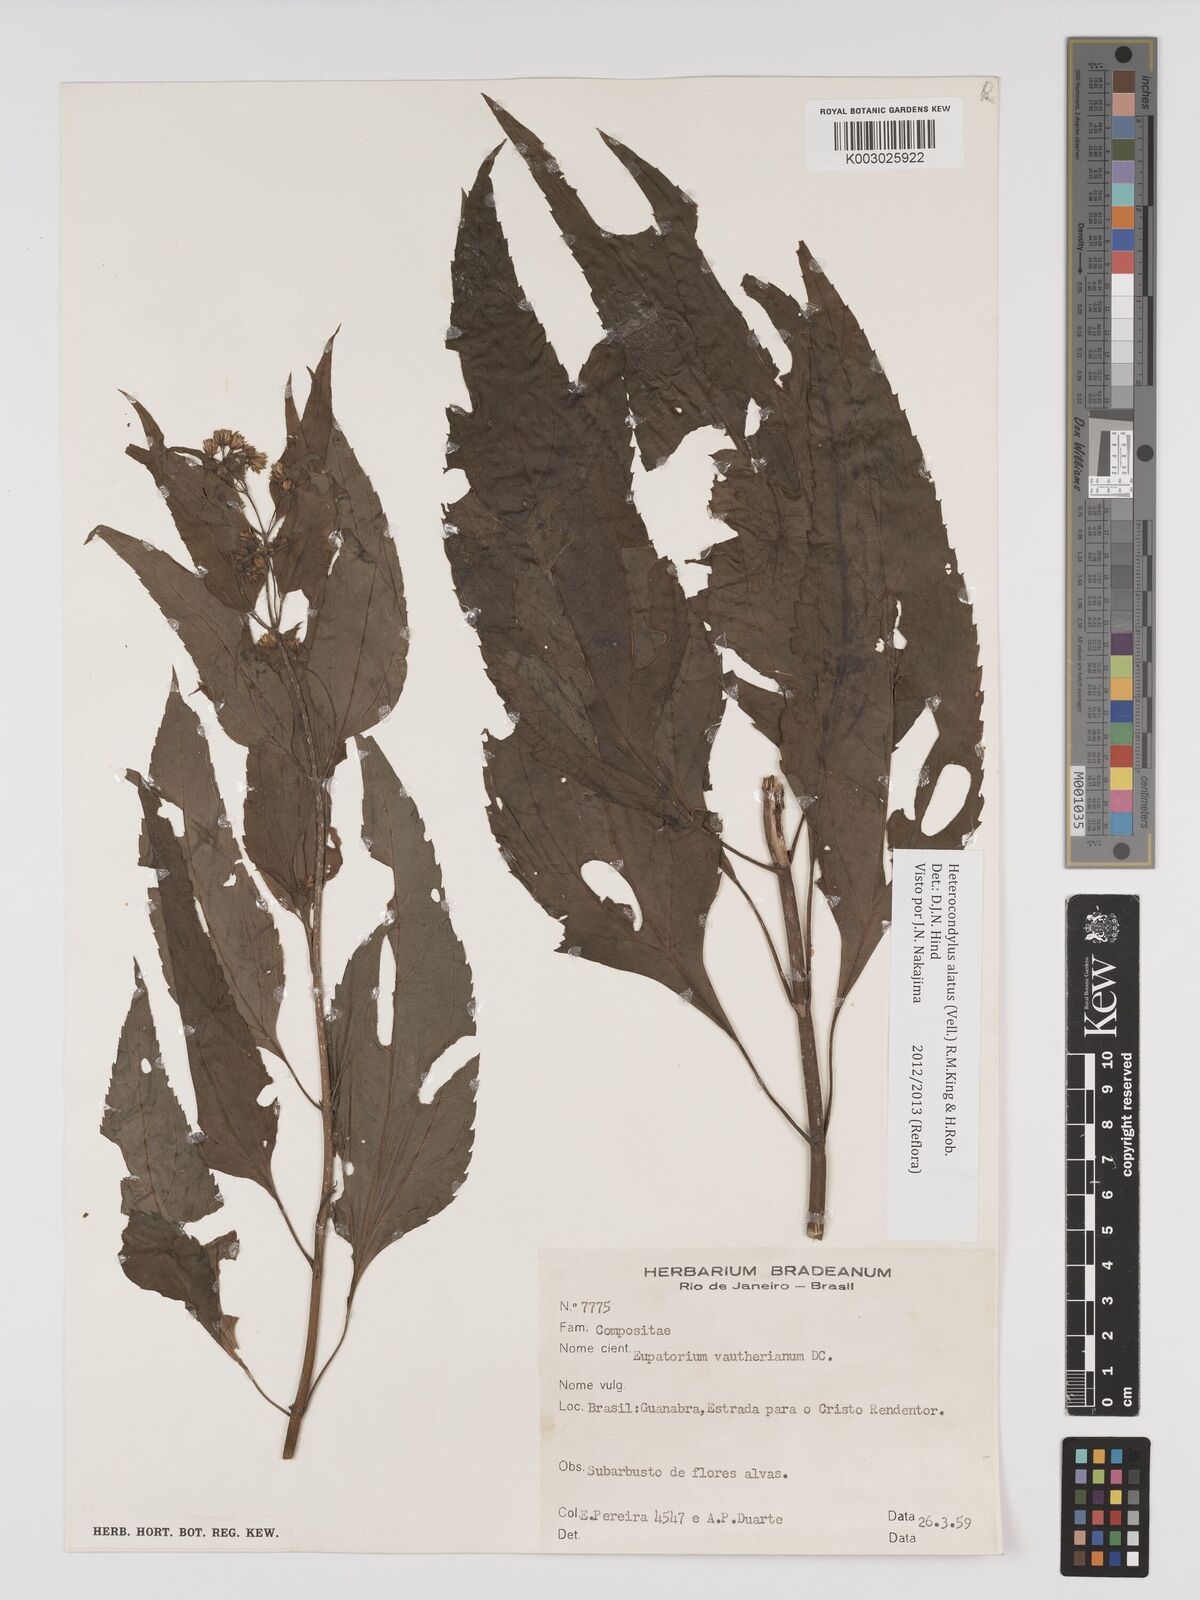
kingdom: Plantae
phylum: Tracheophyta
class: Magnoliopsida
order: Asterales
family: Asteraceae
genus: Heterocondylus
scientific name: Heterocondylus alatus
